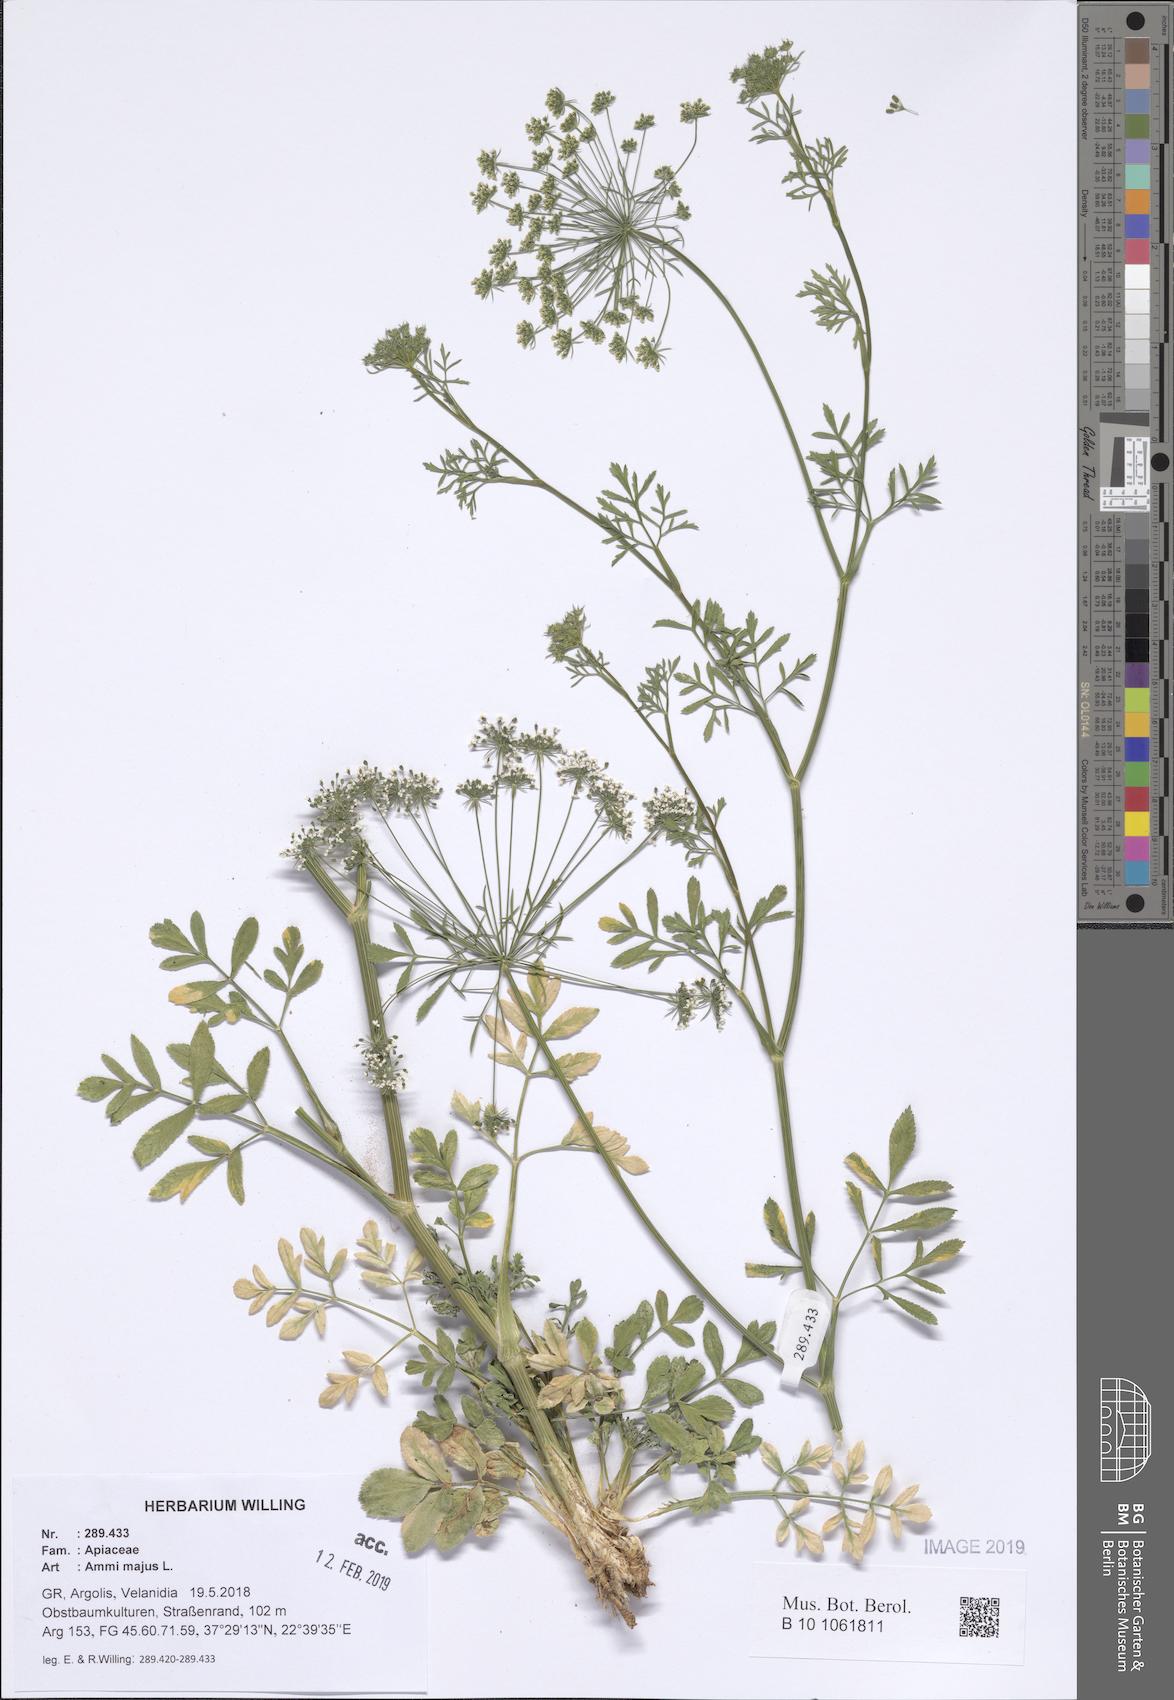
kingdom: Plantae
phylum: Tracheophyta
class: Magnoliopsida
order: Apiales
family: Apiaceae
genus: Ammi
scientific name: Ammi majus
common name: Bullwort
